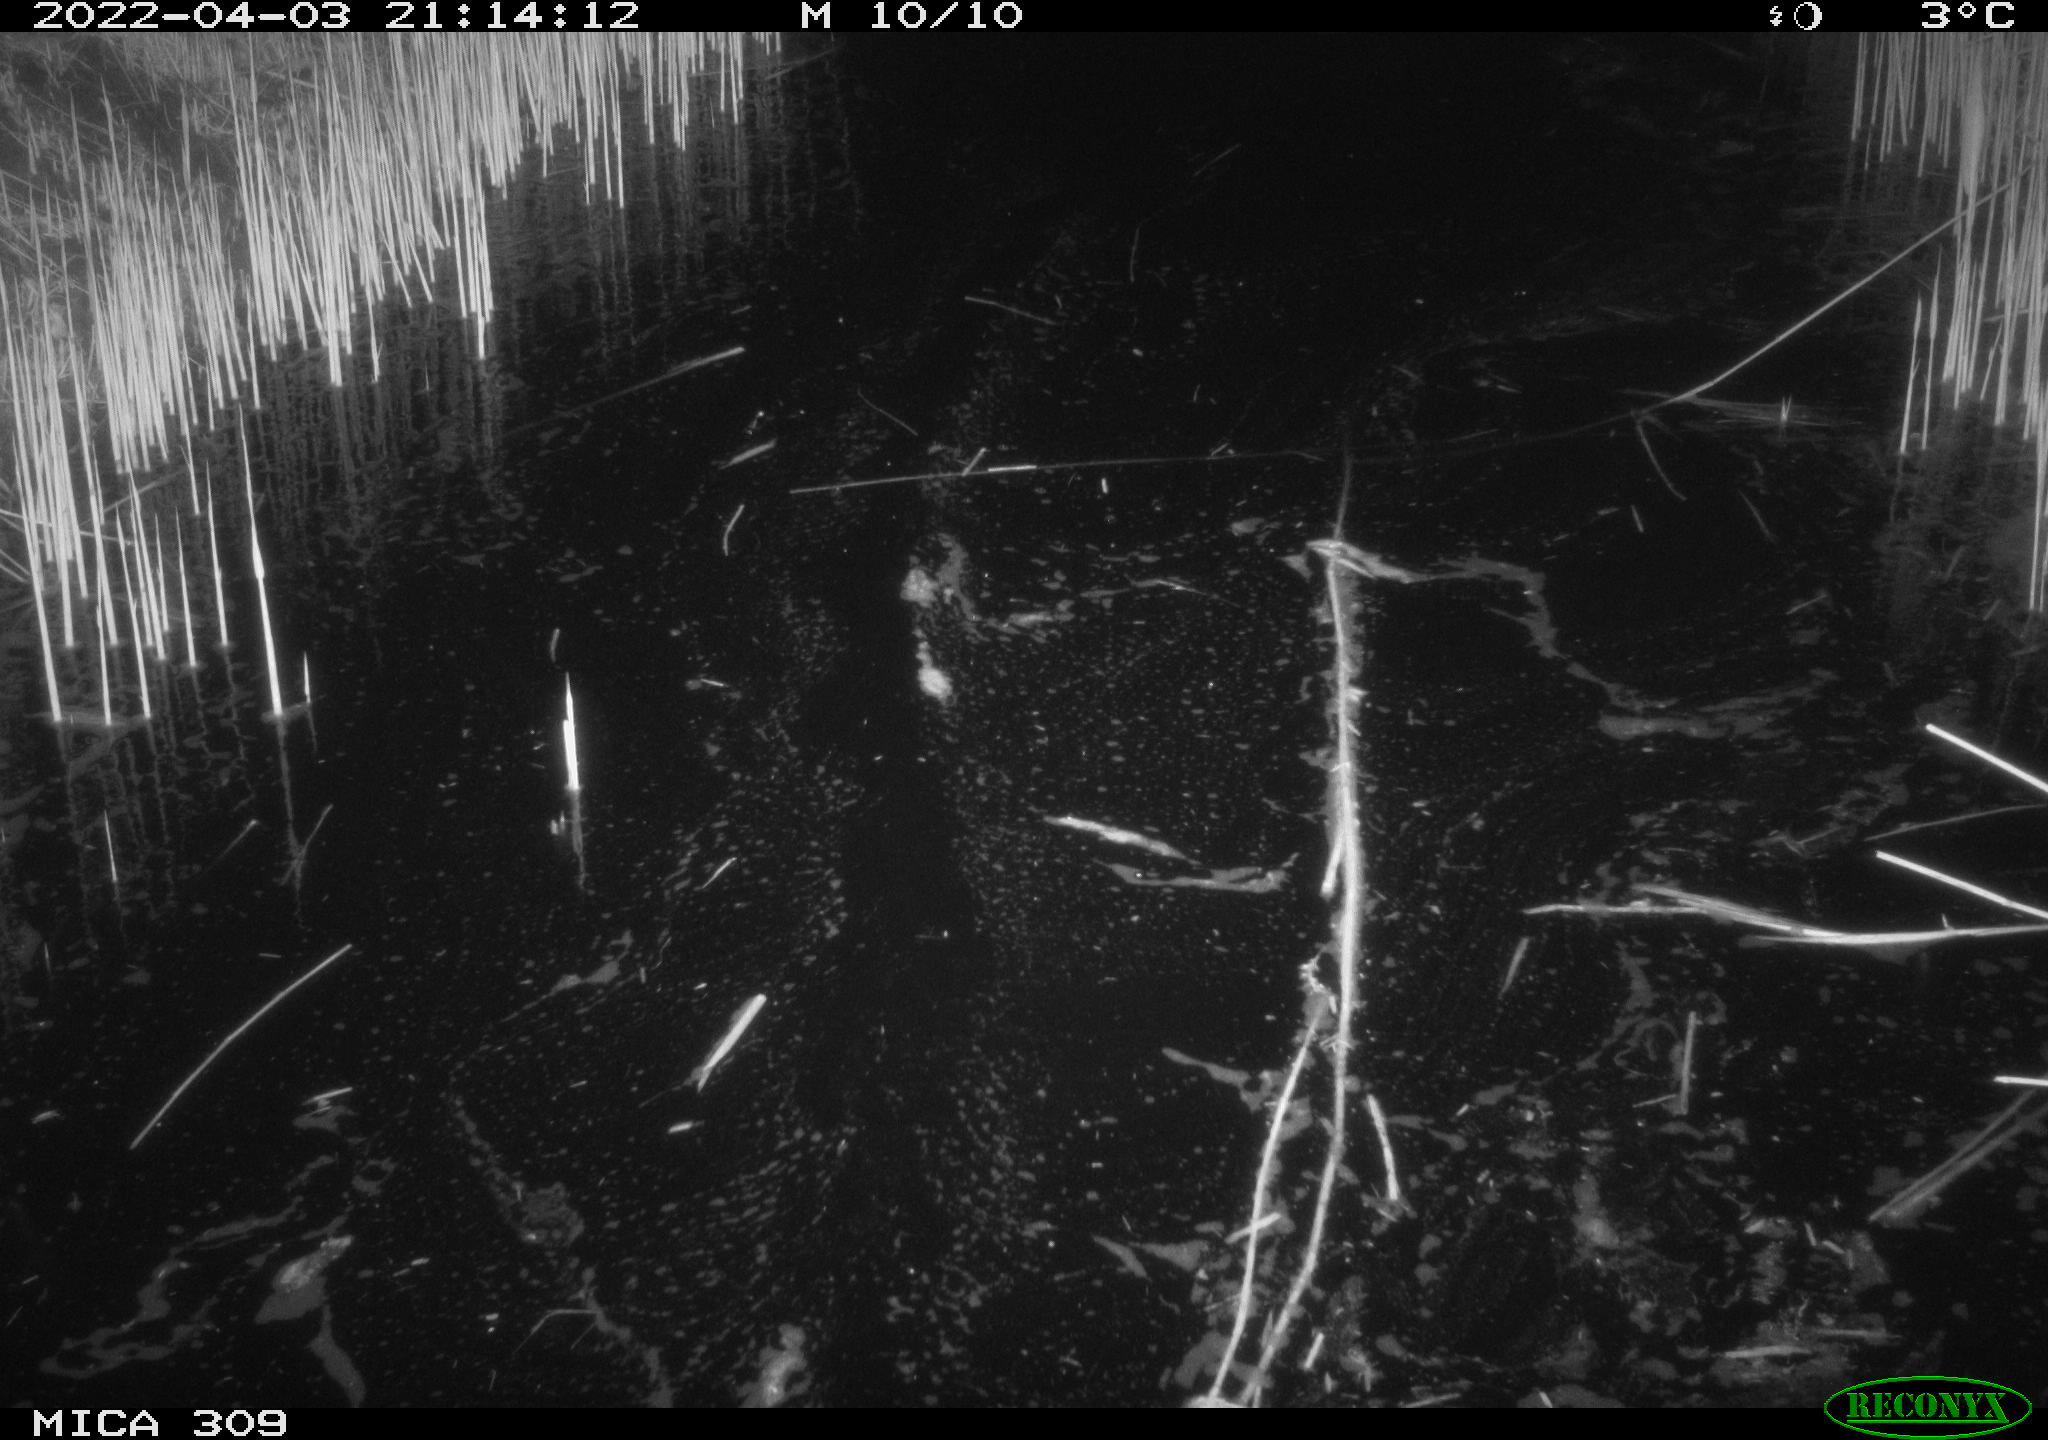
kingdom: Animalia
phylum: Chordata
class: Aves
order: Anseriformes
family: Anatidae
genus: Anas
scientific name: Anas platyrhynchos
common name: Mallard
